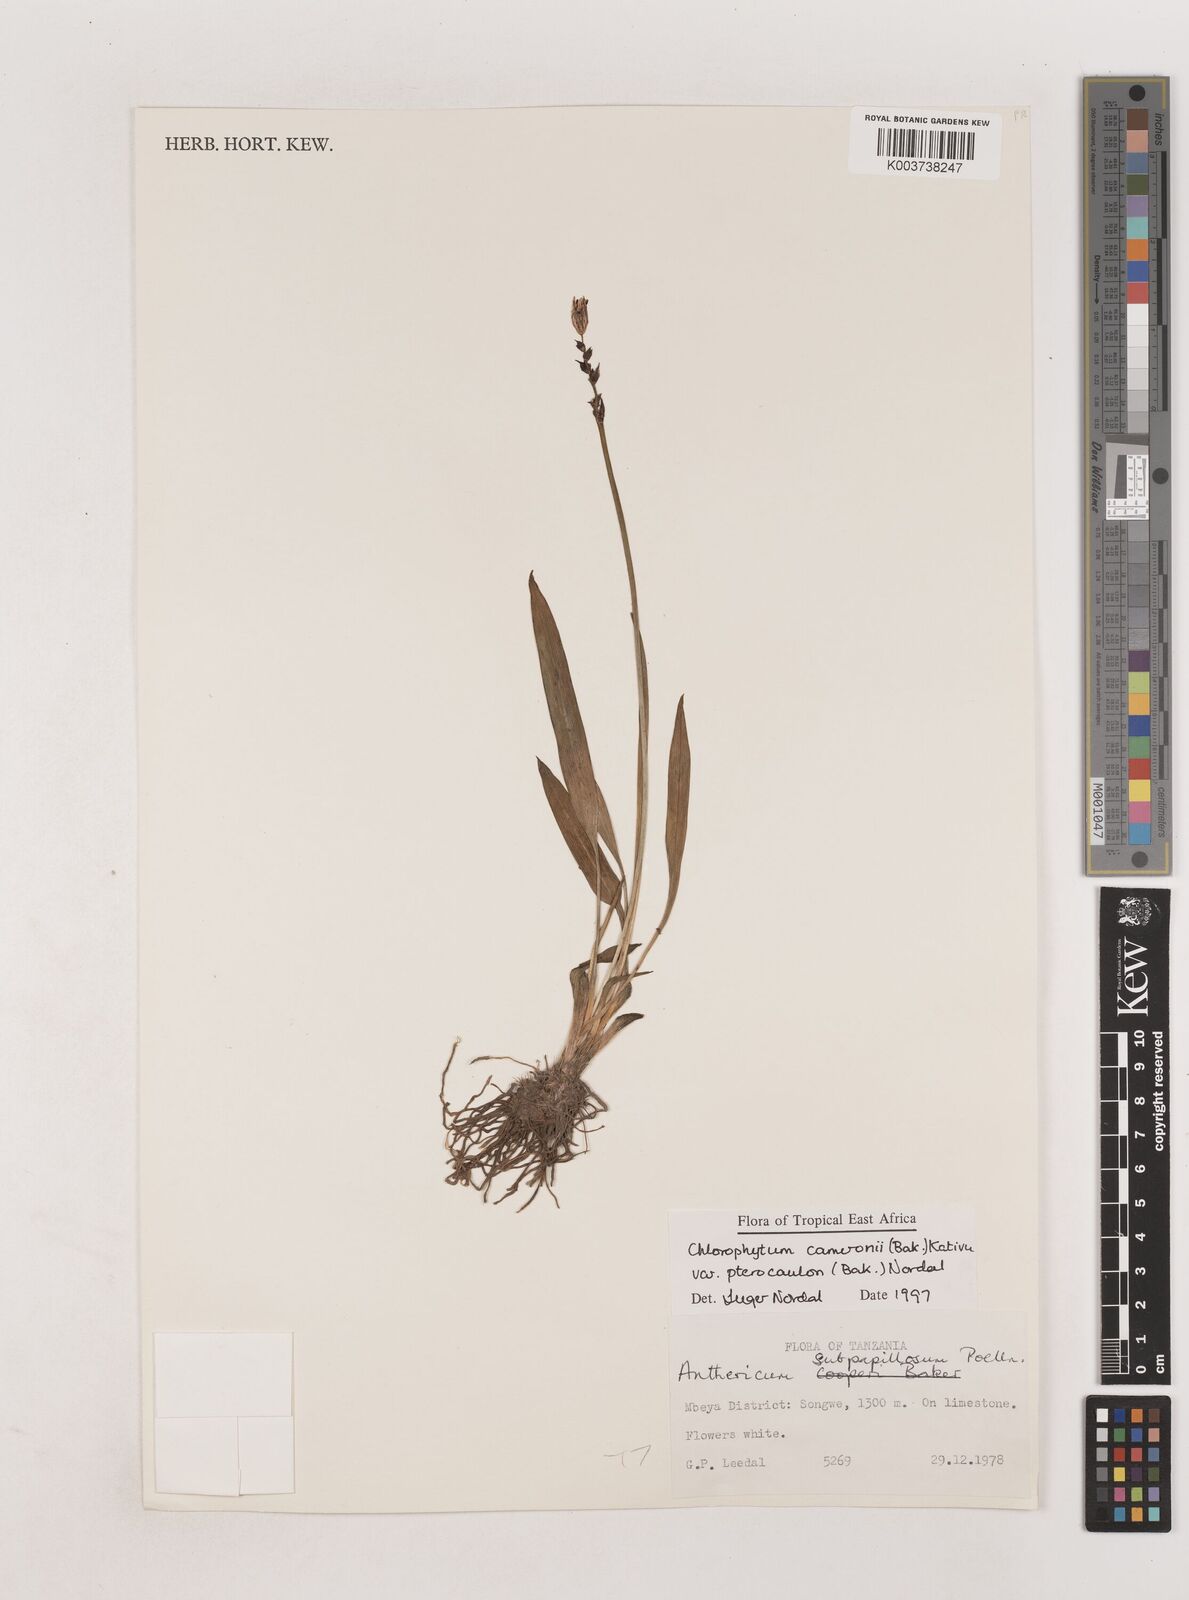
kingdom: Plantae
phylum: Tracheophyta
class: Liliopsida
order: Asparagales
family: Asparagaceae
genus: Chlorophytum
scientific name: Chlorophytum cameronii
